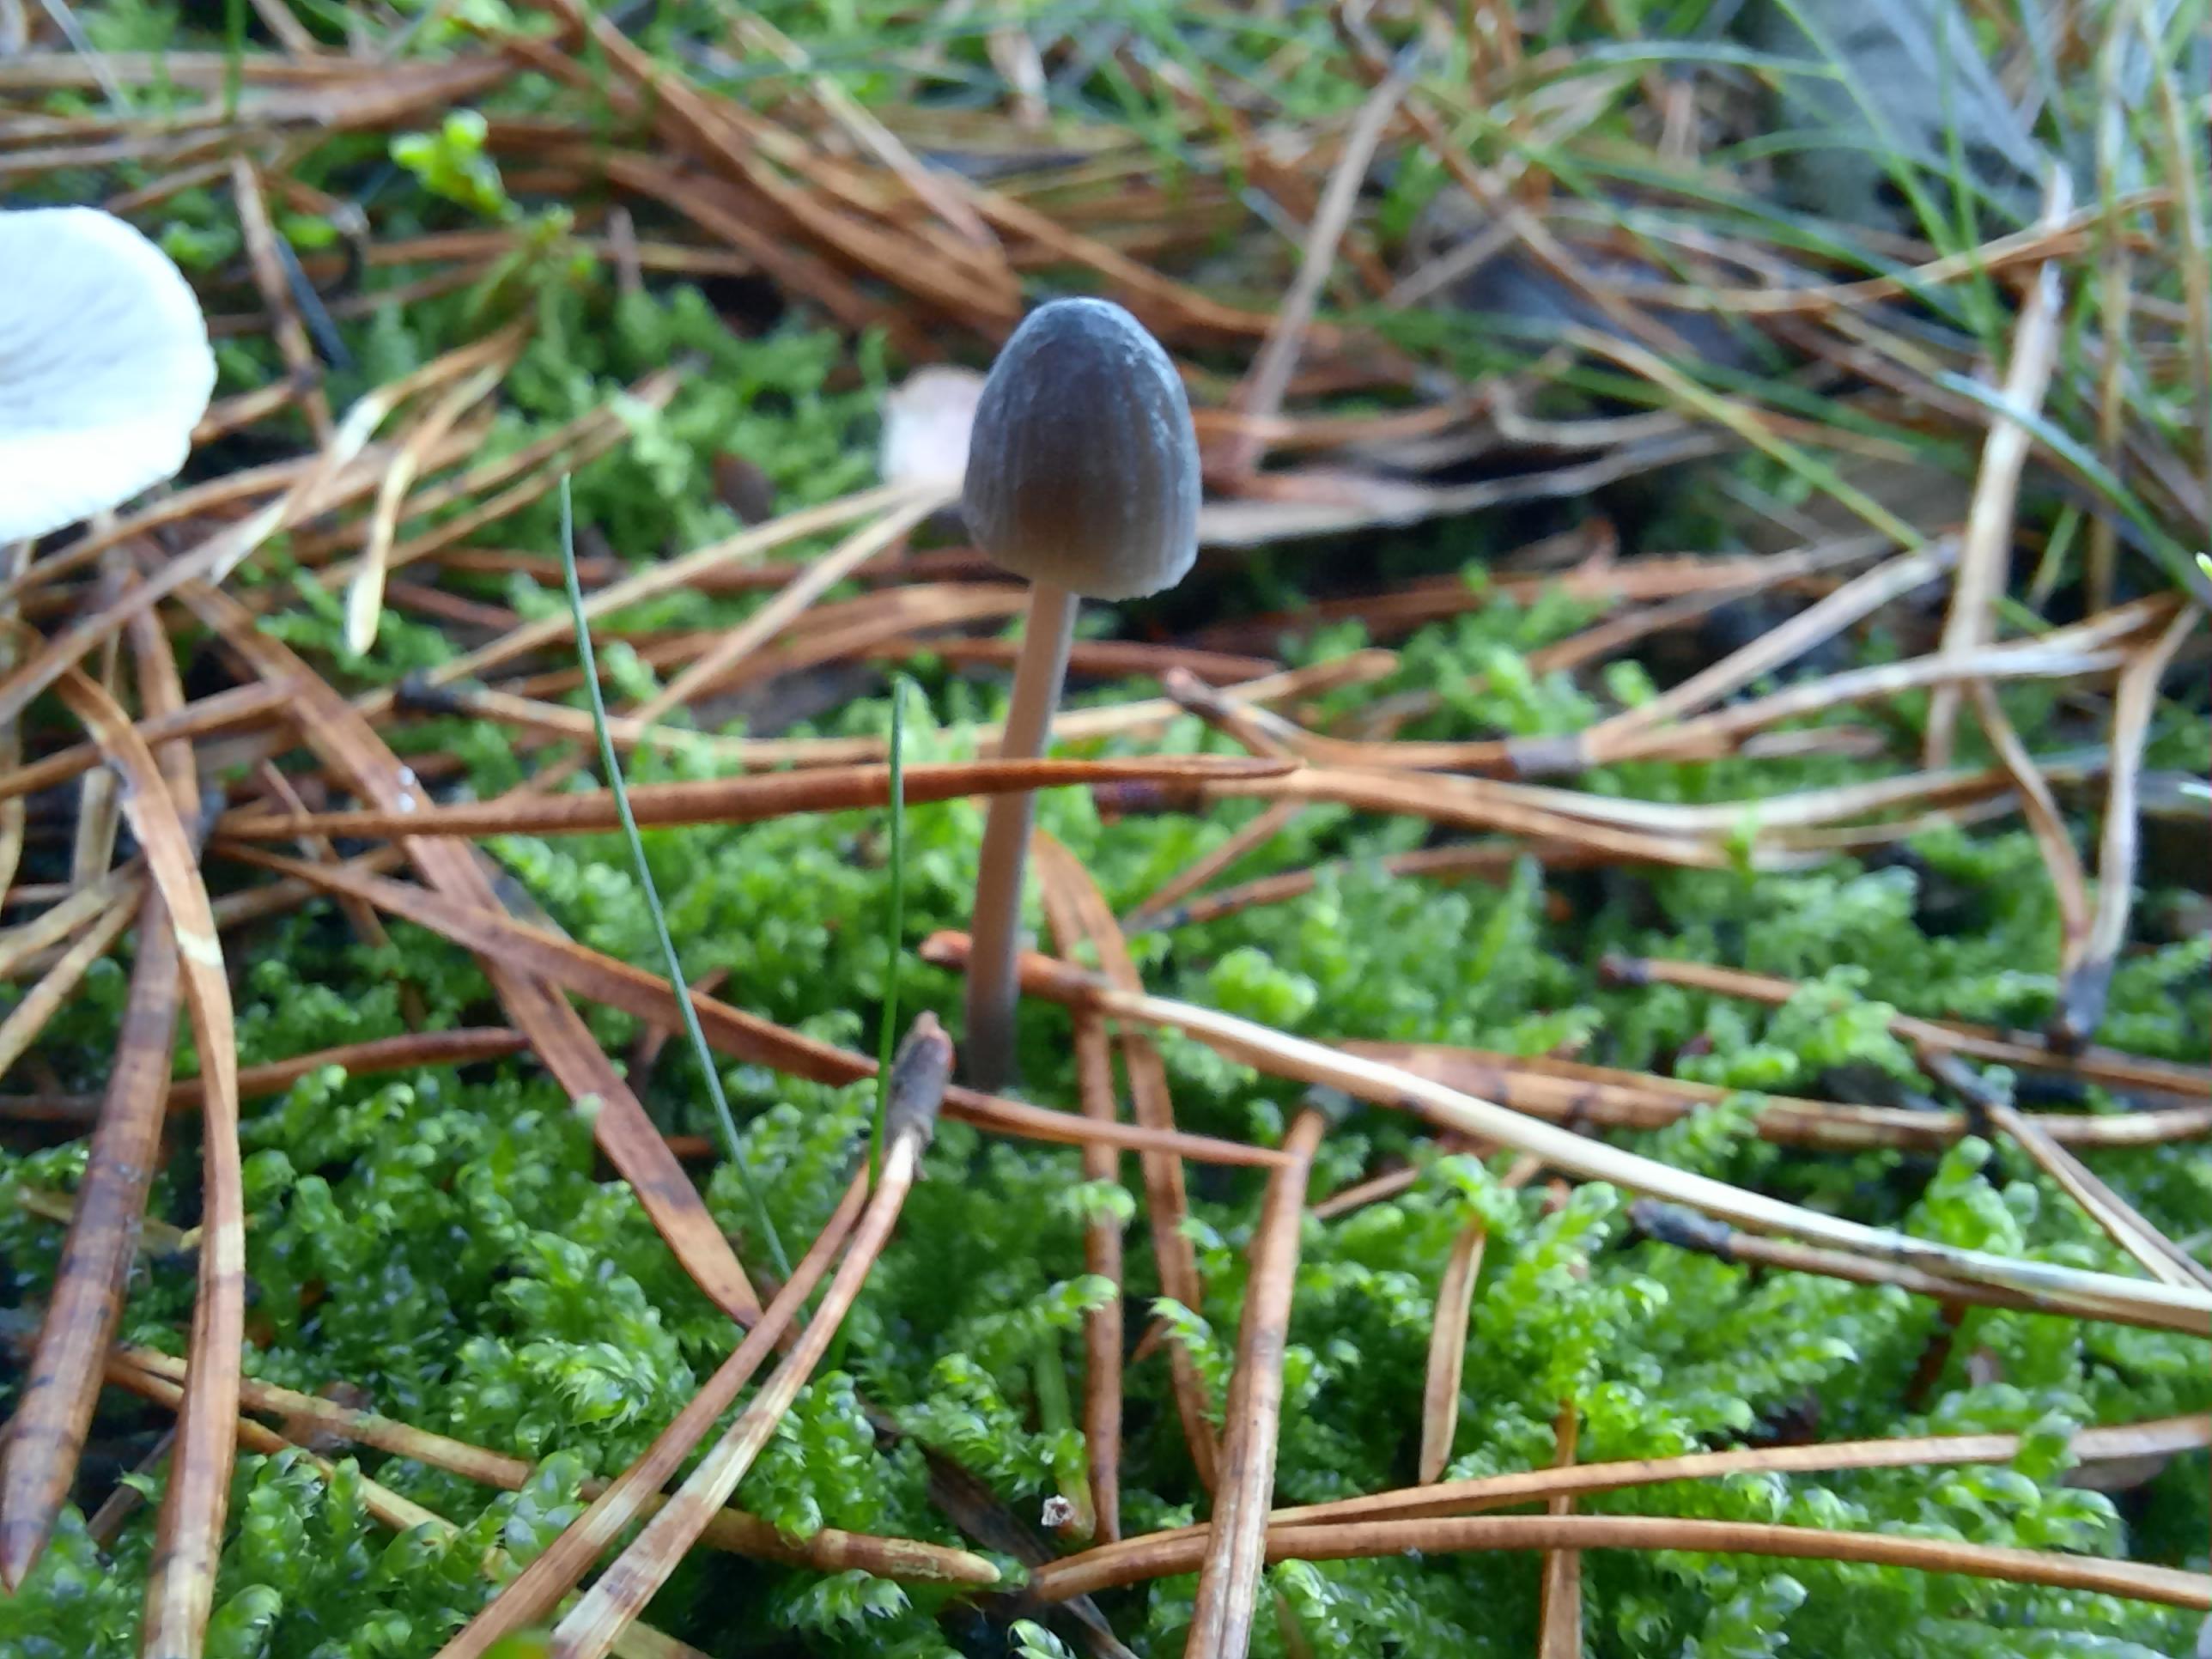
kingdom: Fungi
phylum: Basidiomycota
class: Agaricomycetes
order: Agaricales
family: Mycenaceae
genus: Mycena
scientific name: Mycena galopus
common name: hvidmælket huesvamp
